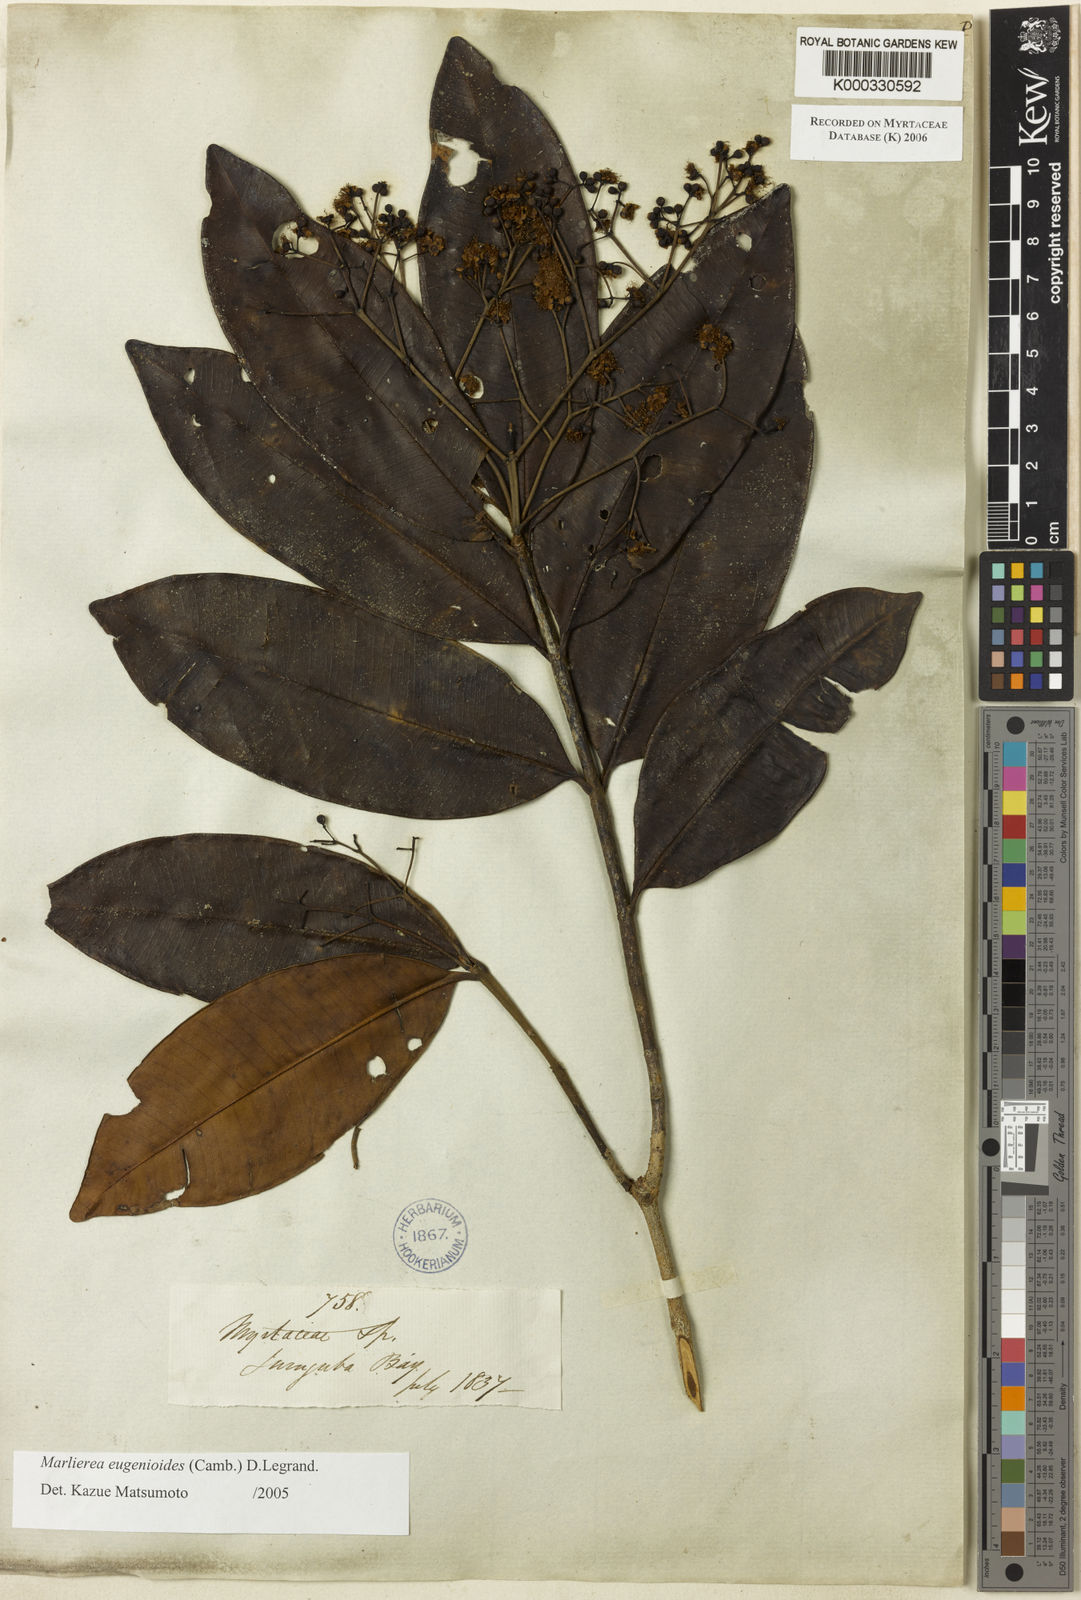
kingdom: Plantae
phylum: Tracheophyta
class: Magnoliopsida
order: Myrtales
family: Myrtaceae
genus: Myrcia
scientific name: Myrcia eugenioides
